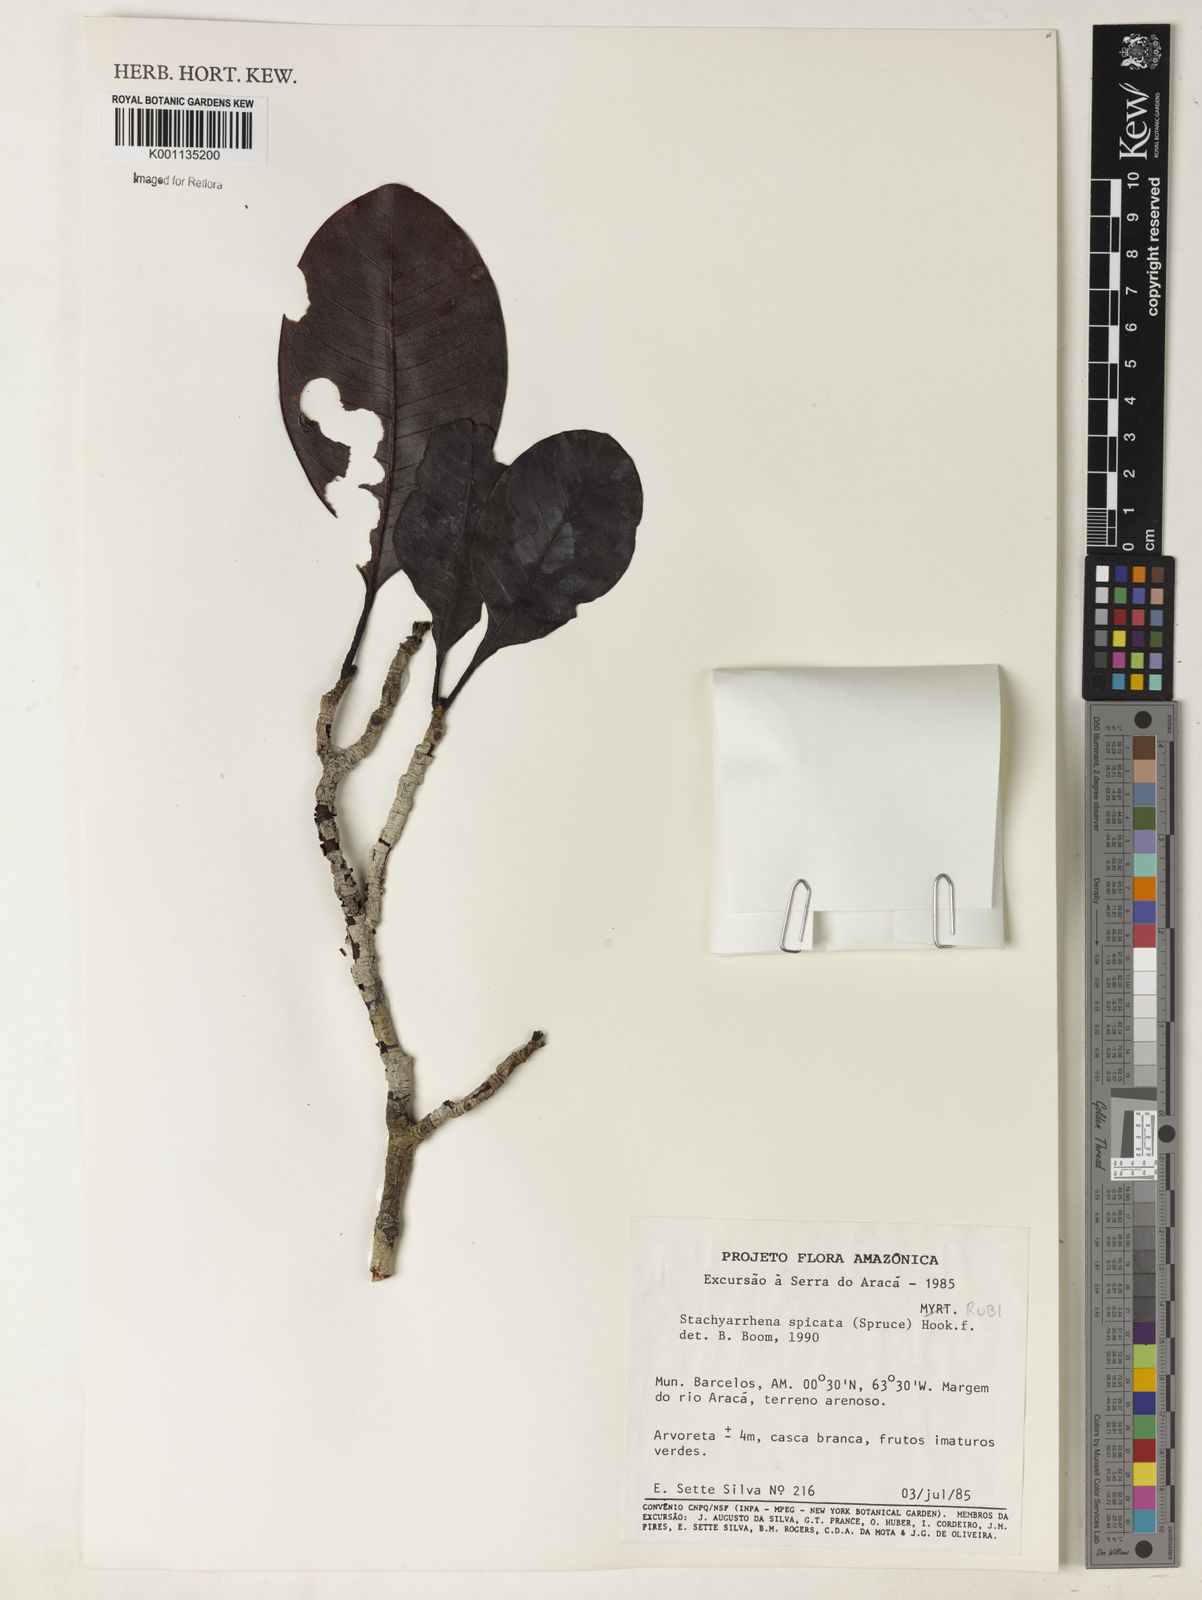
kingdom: Plantae
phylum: Tracheophyta
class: Magnoliopsida
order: Gentianales
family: Rubiaceae
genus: Stachyarrhena
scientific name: Stachyarrhena spicata
